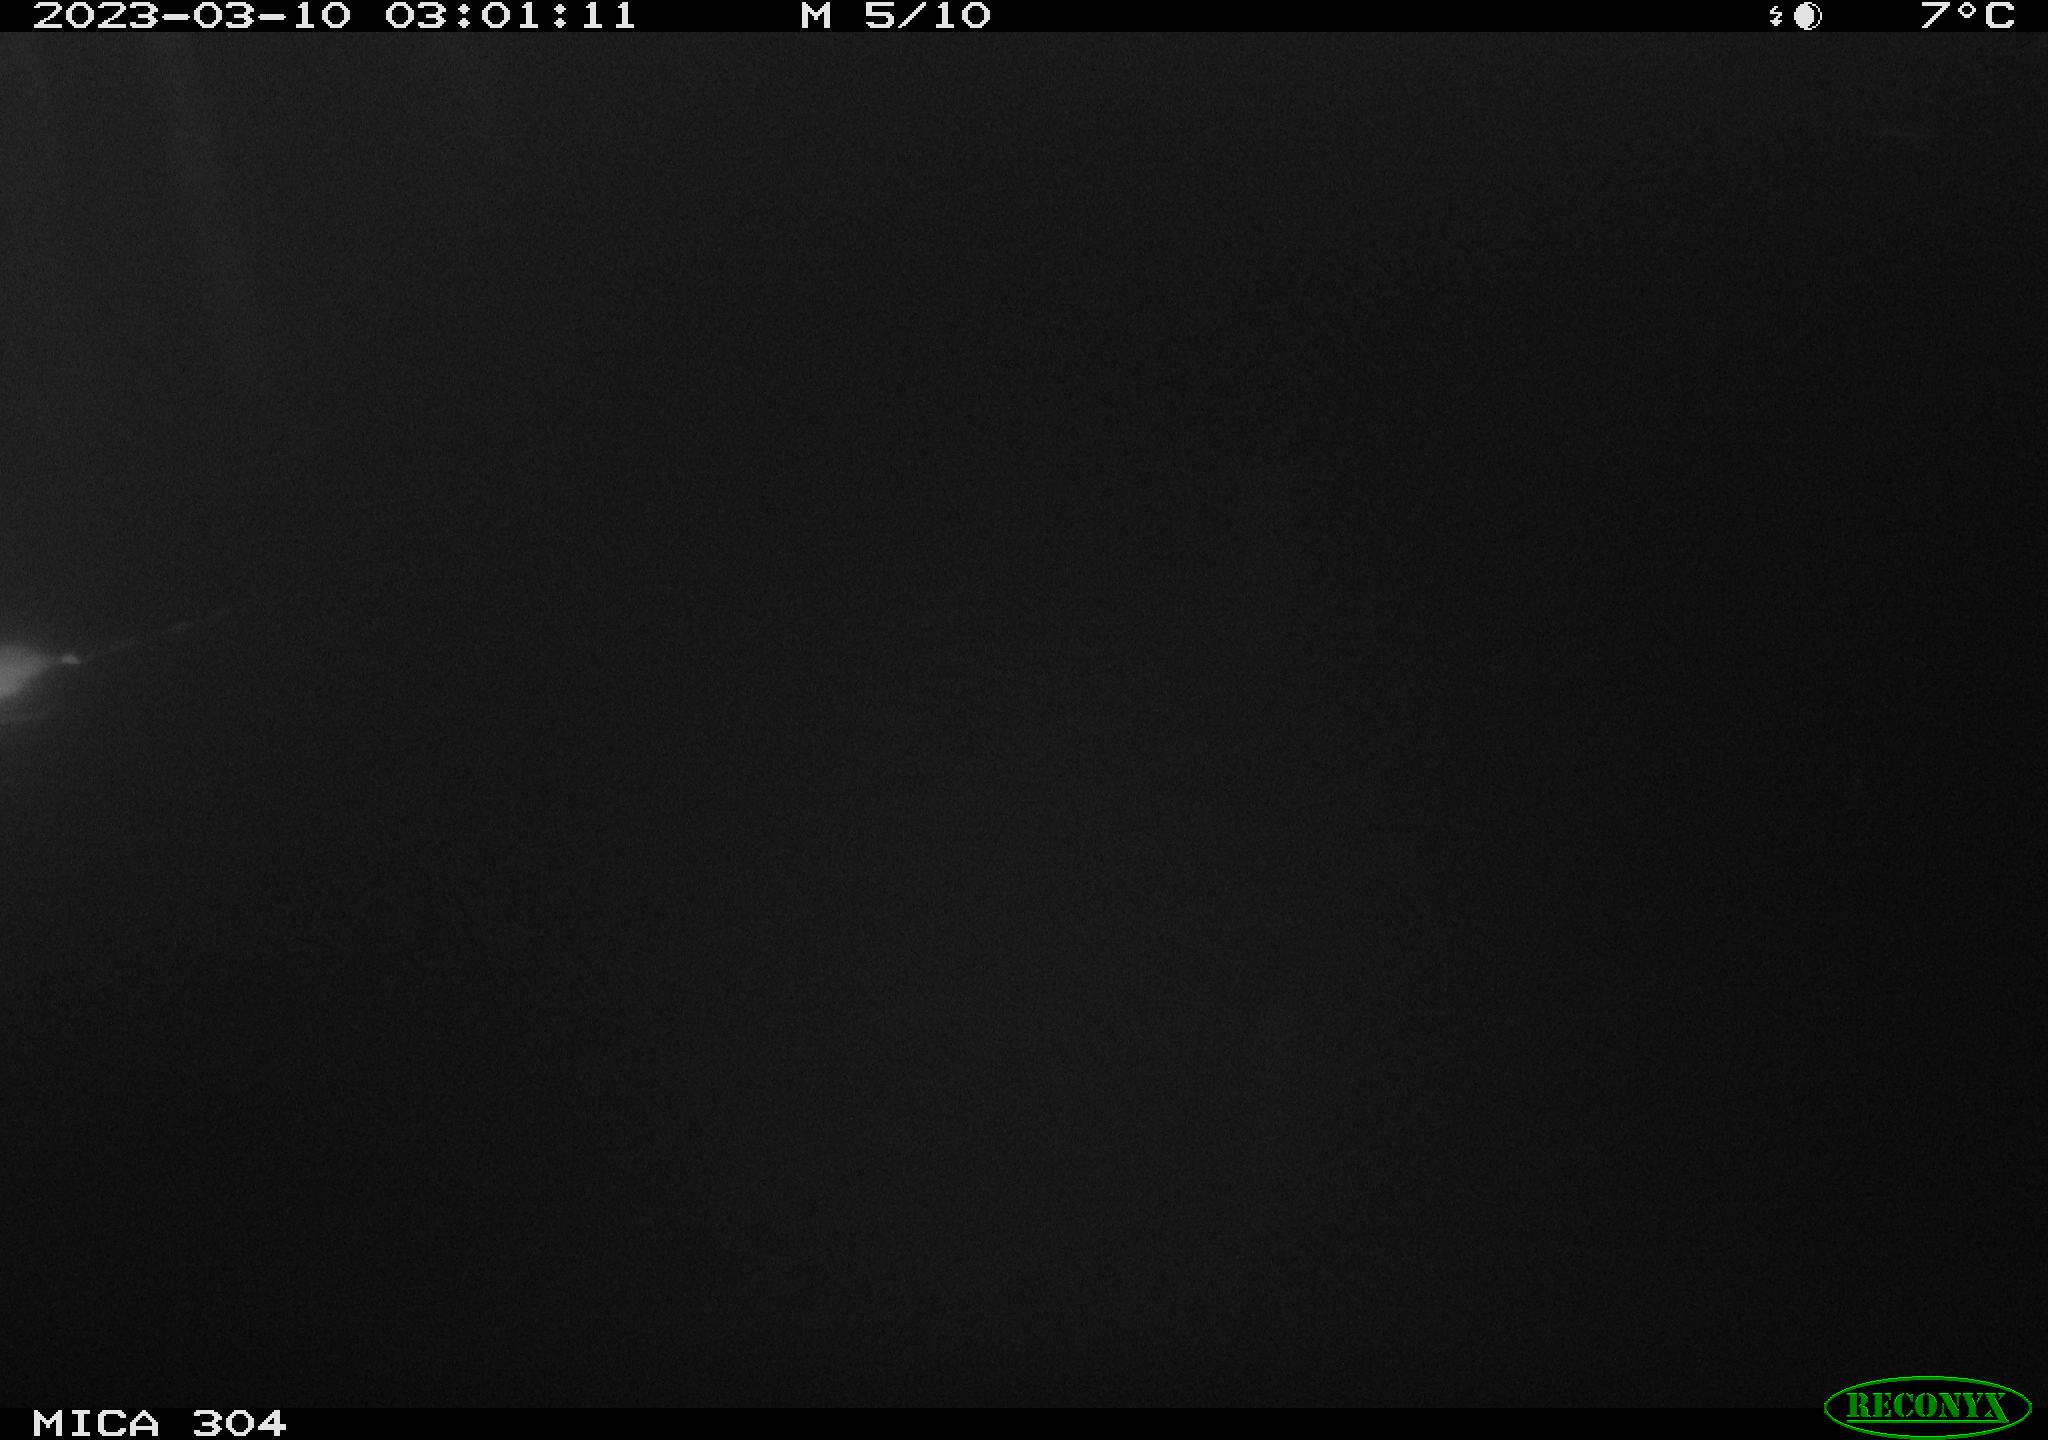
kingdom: Animalia
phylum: Chordata
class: Mammalia
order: Rodentia
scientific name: Rodentia
